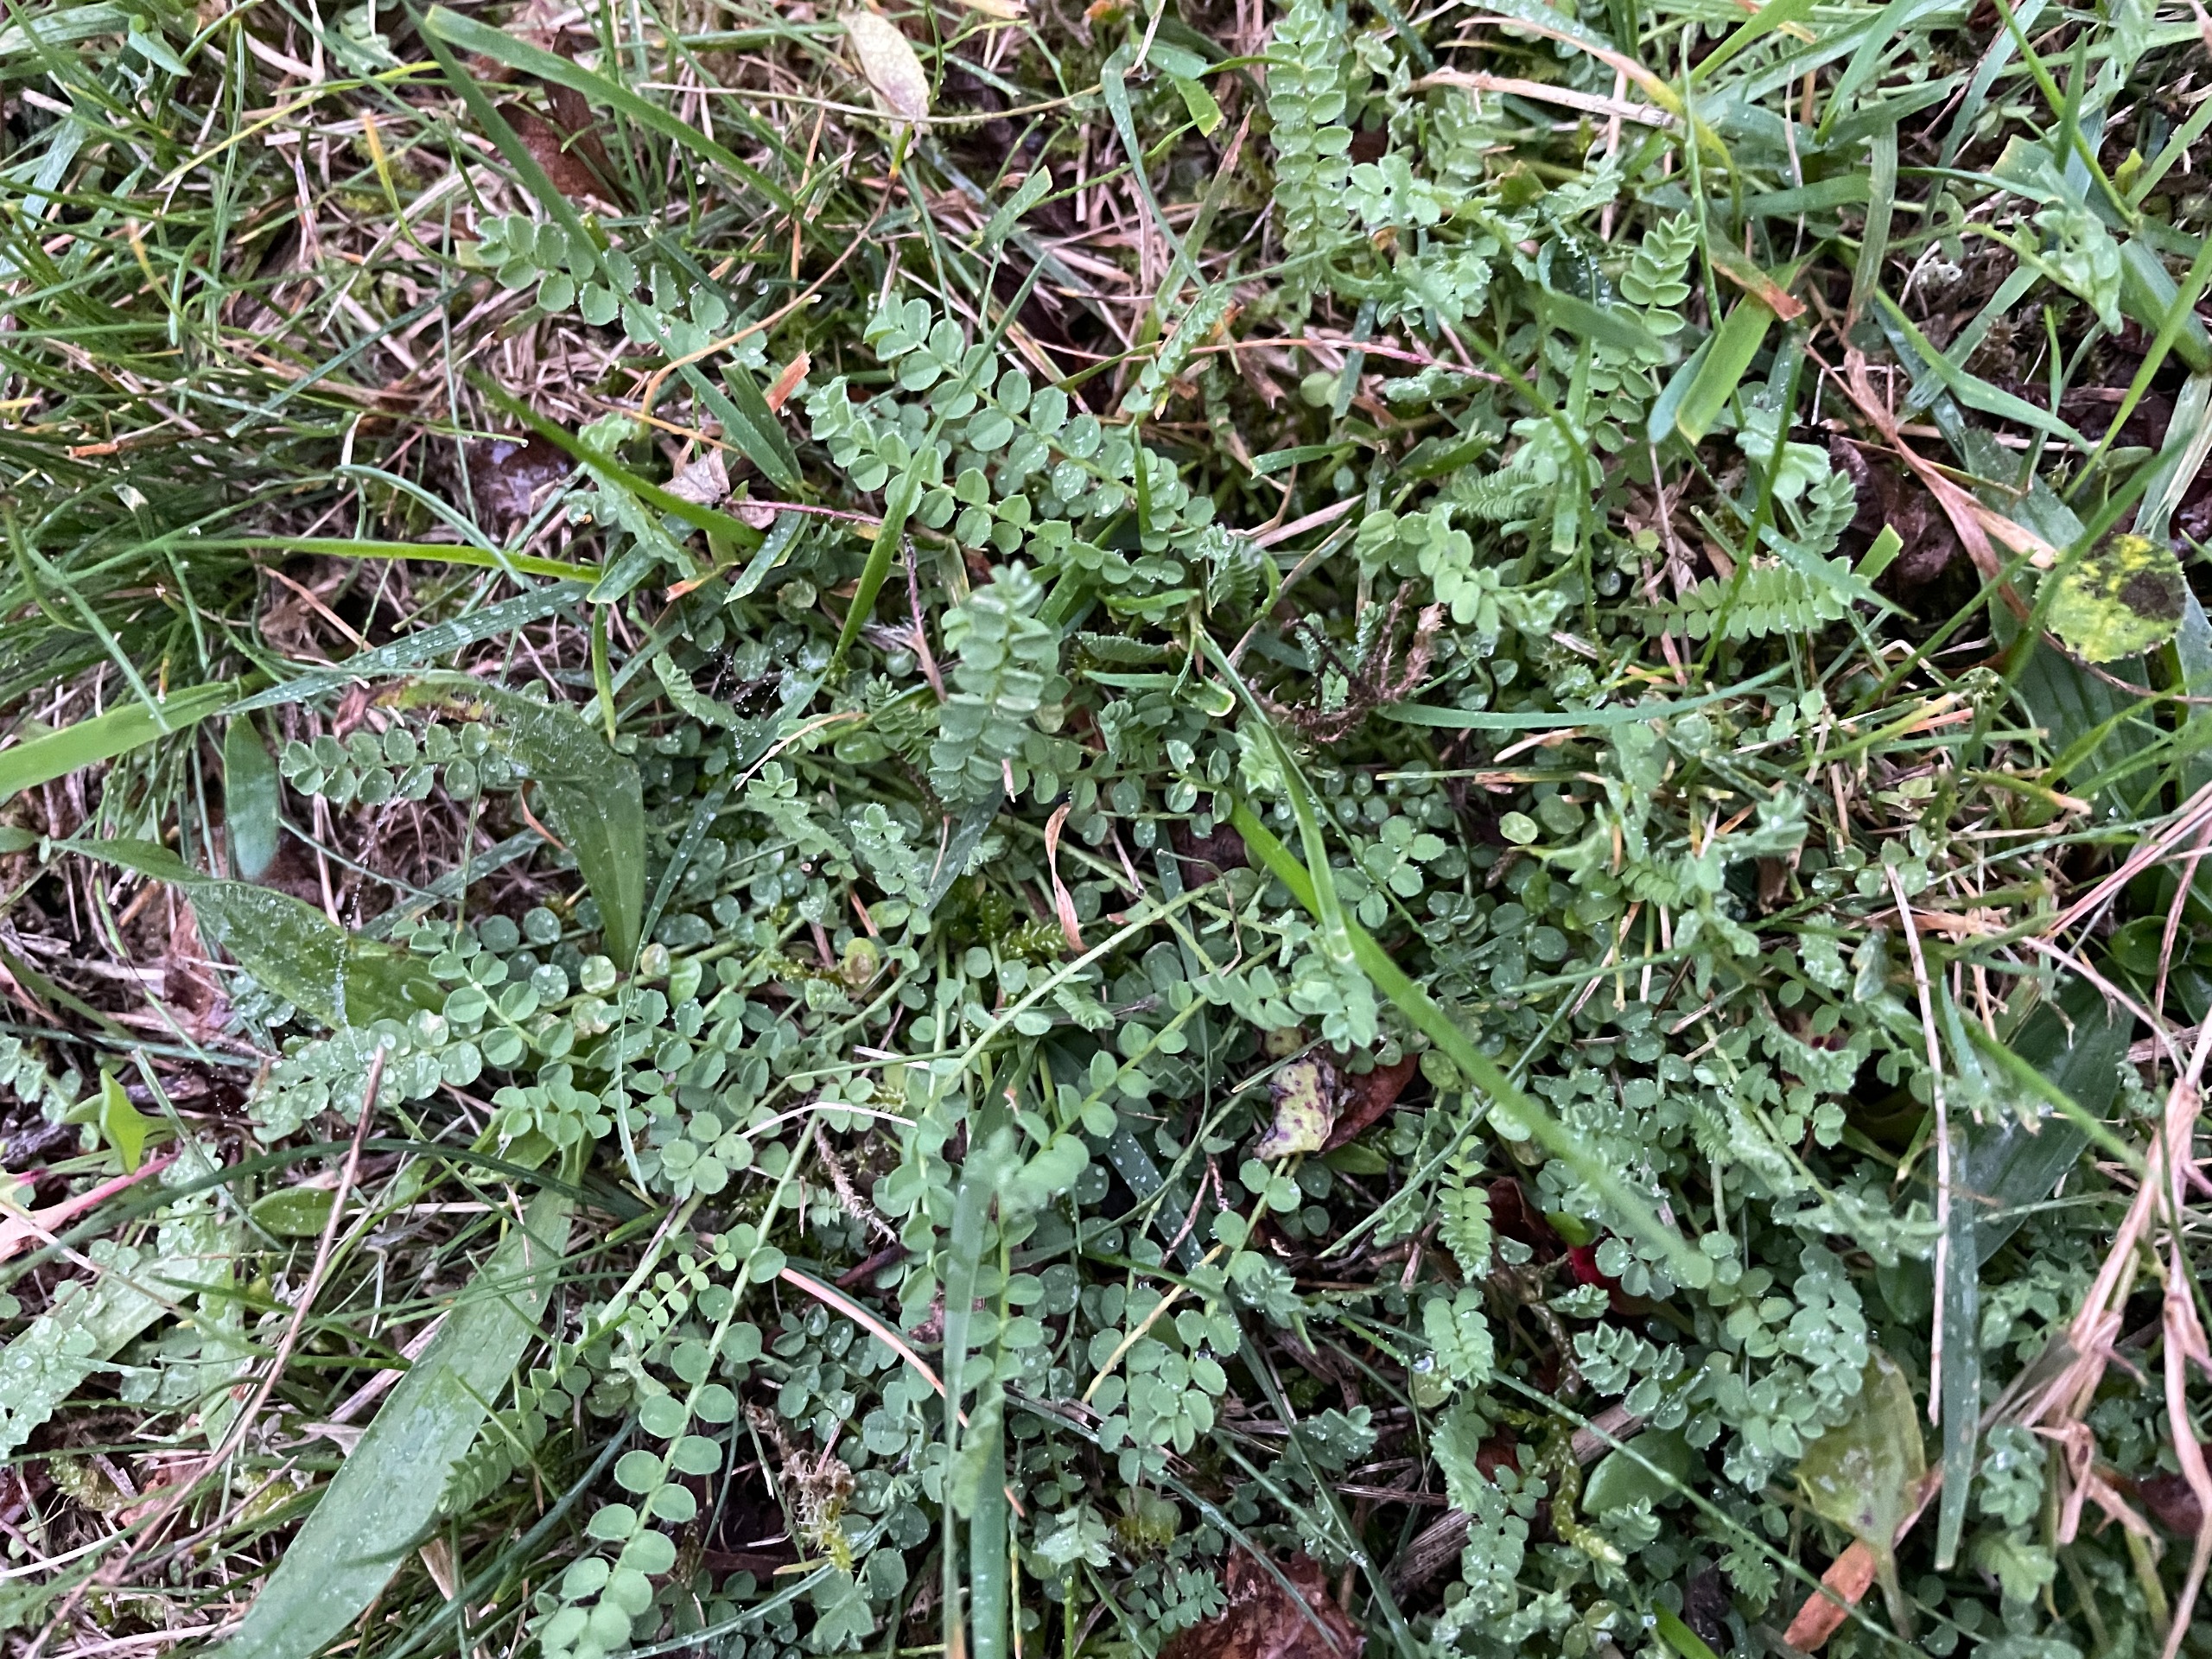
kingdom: Plantae
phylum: Tracheophyta
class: Magnoliopsida
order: Fabales
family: Fabaceae
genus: Ornithopus
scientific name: Ornithopus perpusillus
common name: Liden fugleklo
